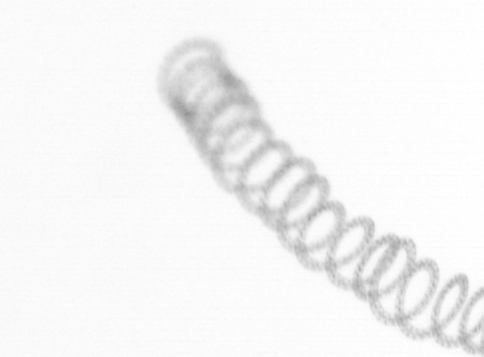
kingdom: Chromista
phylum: Ochrophyta
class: Bacillariophyceae
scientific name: Bacillariophyceae
